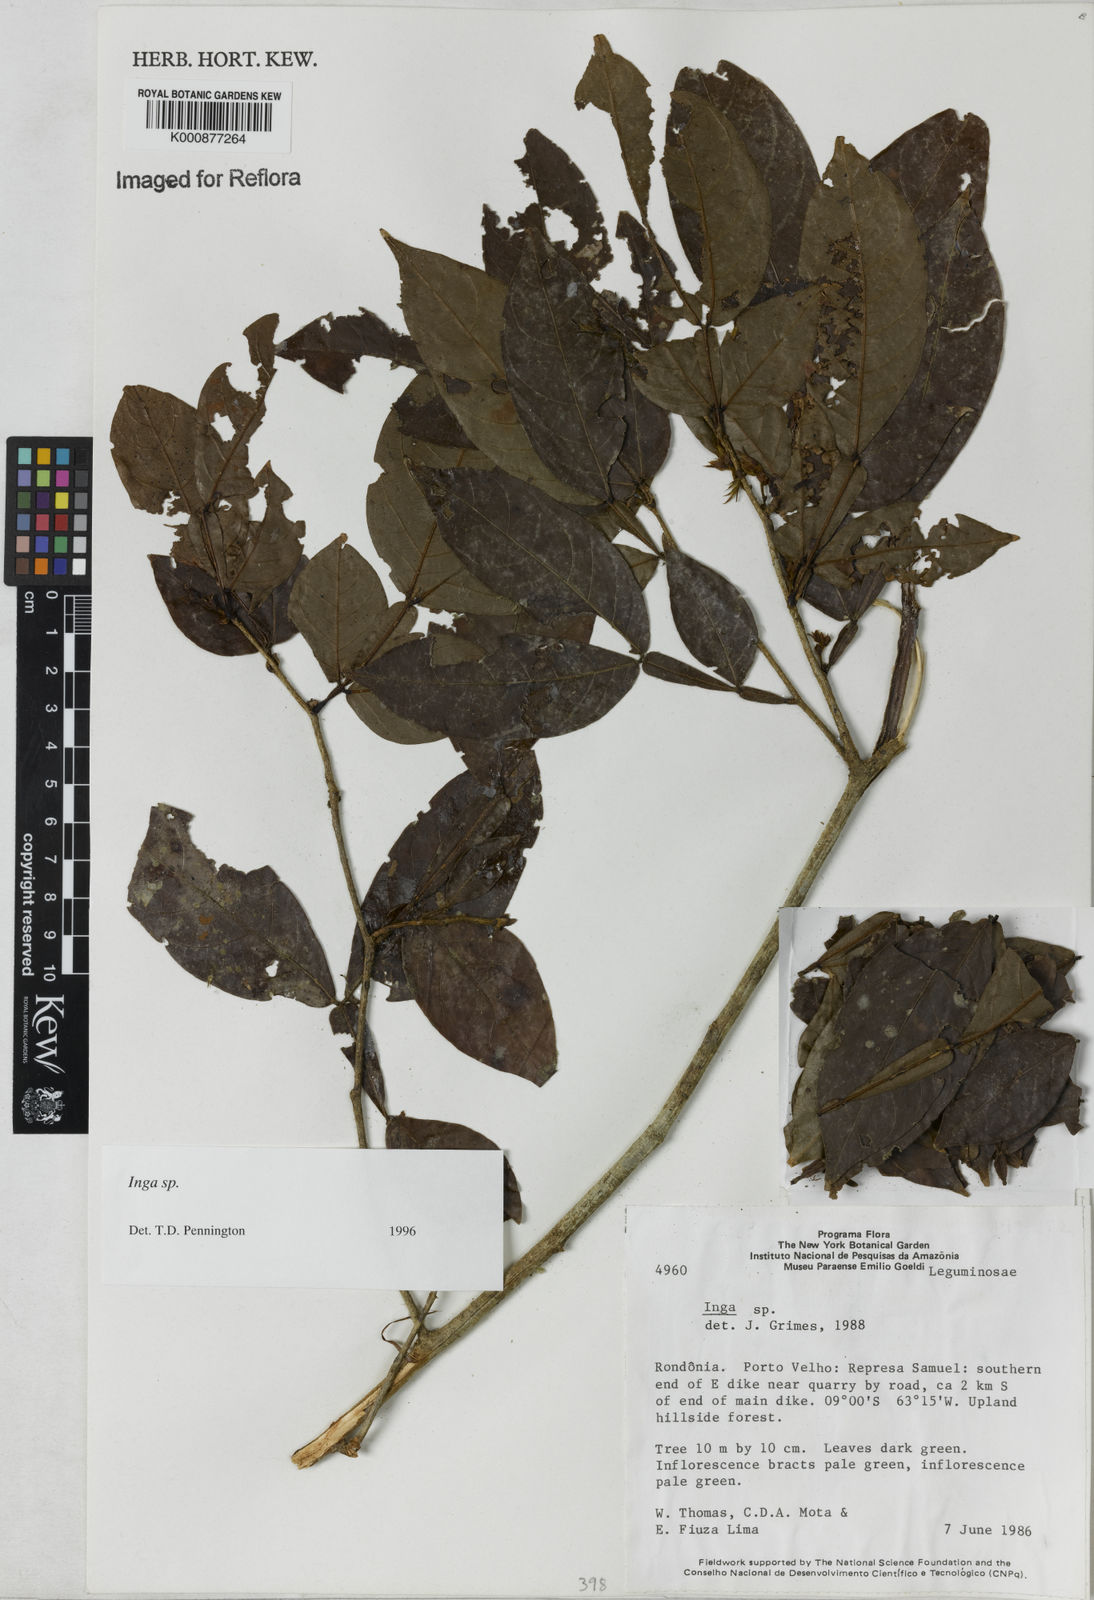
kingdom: Plantae
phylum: Tracheophyta
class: Magnoliopsida
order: Fabales
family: Fabaceae
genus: Inga
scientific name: Inga
